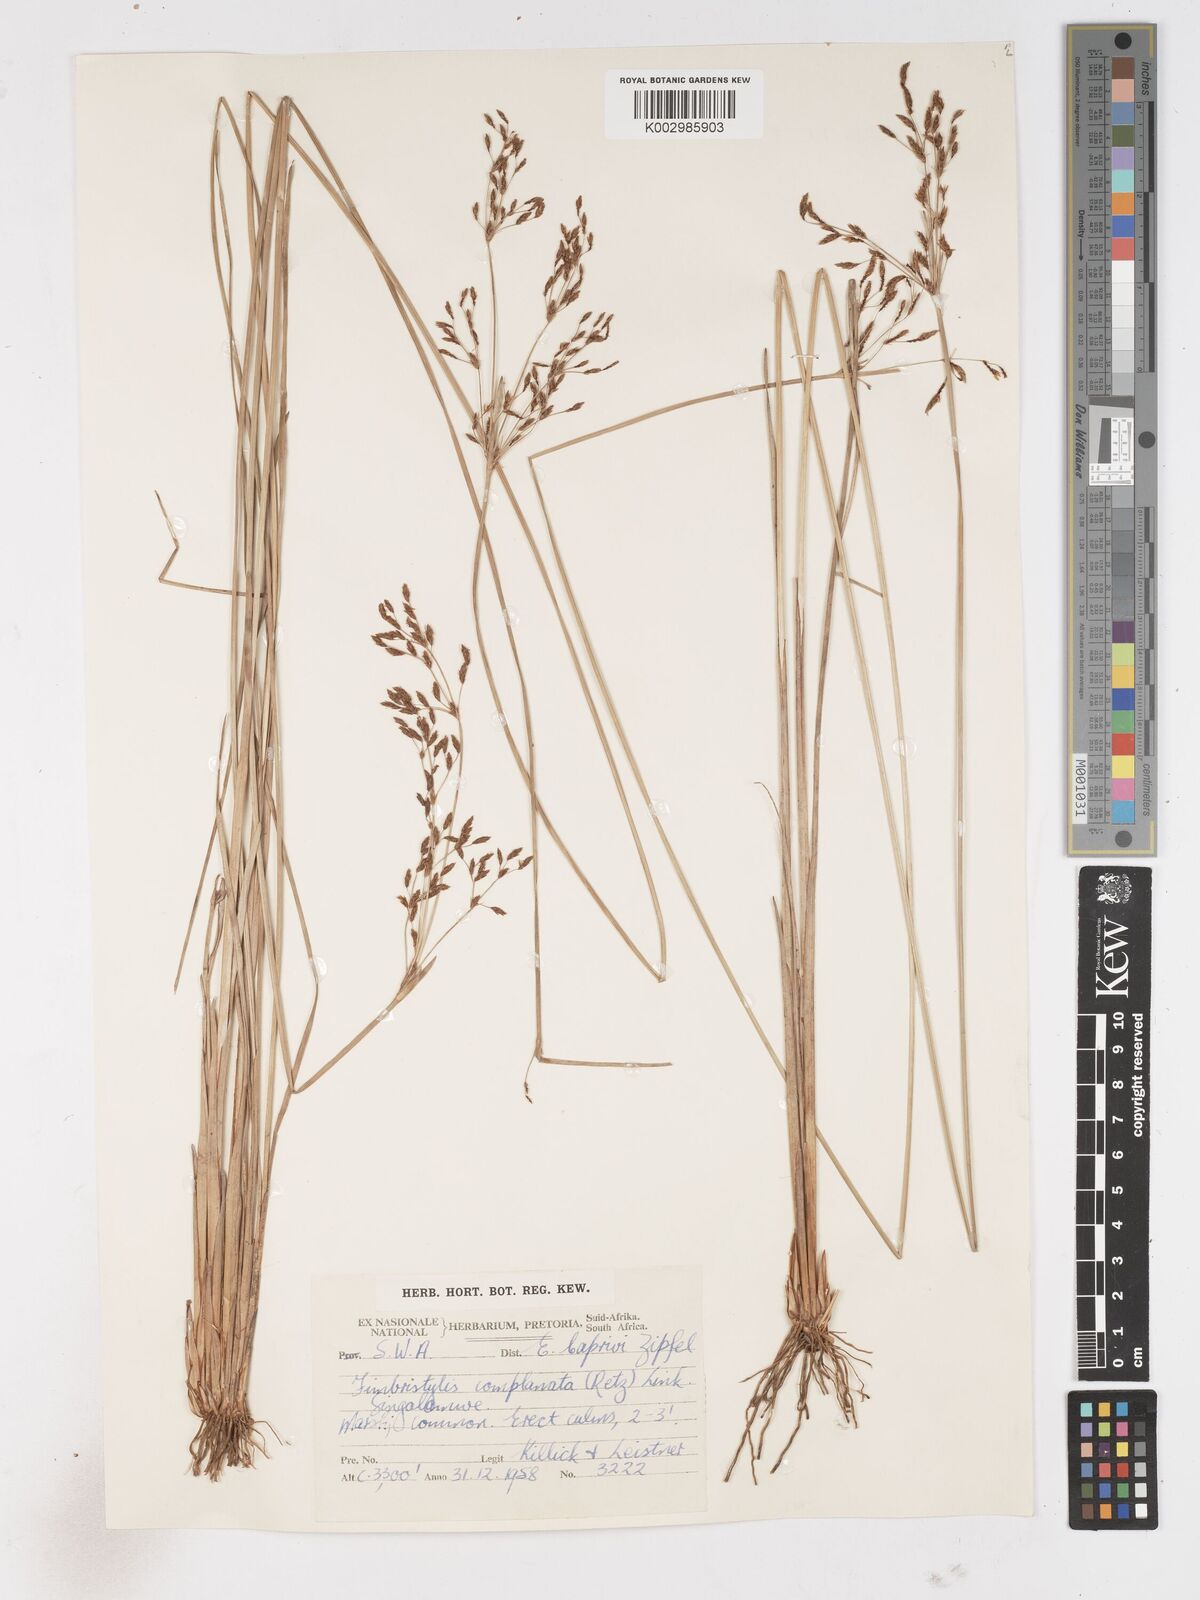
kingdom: Plantae
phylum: Tracheophyta
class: Liliopsida
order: Poales
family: Cyperaceae
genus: Fimbristylis
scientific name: Fimbristylis complanata
